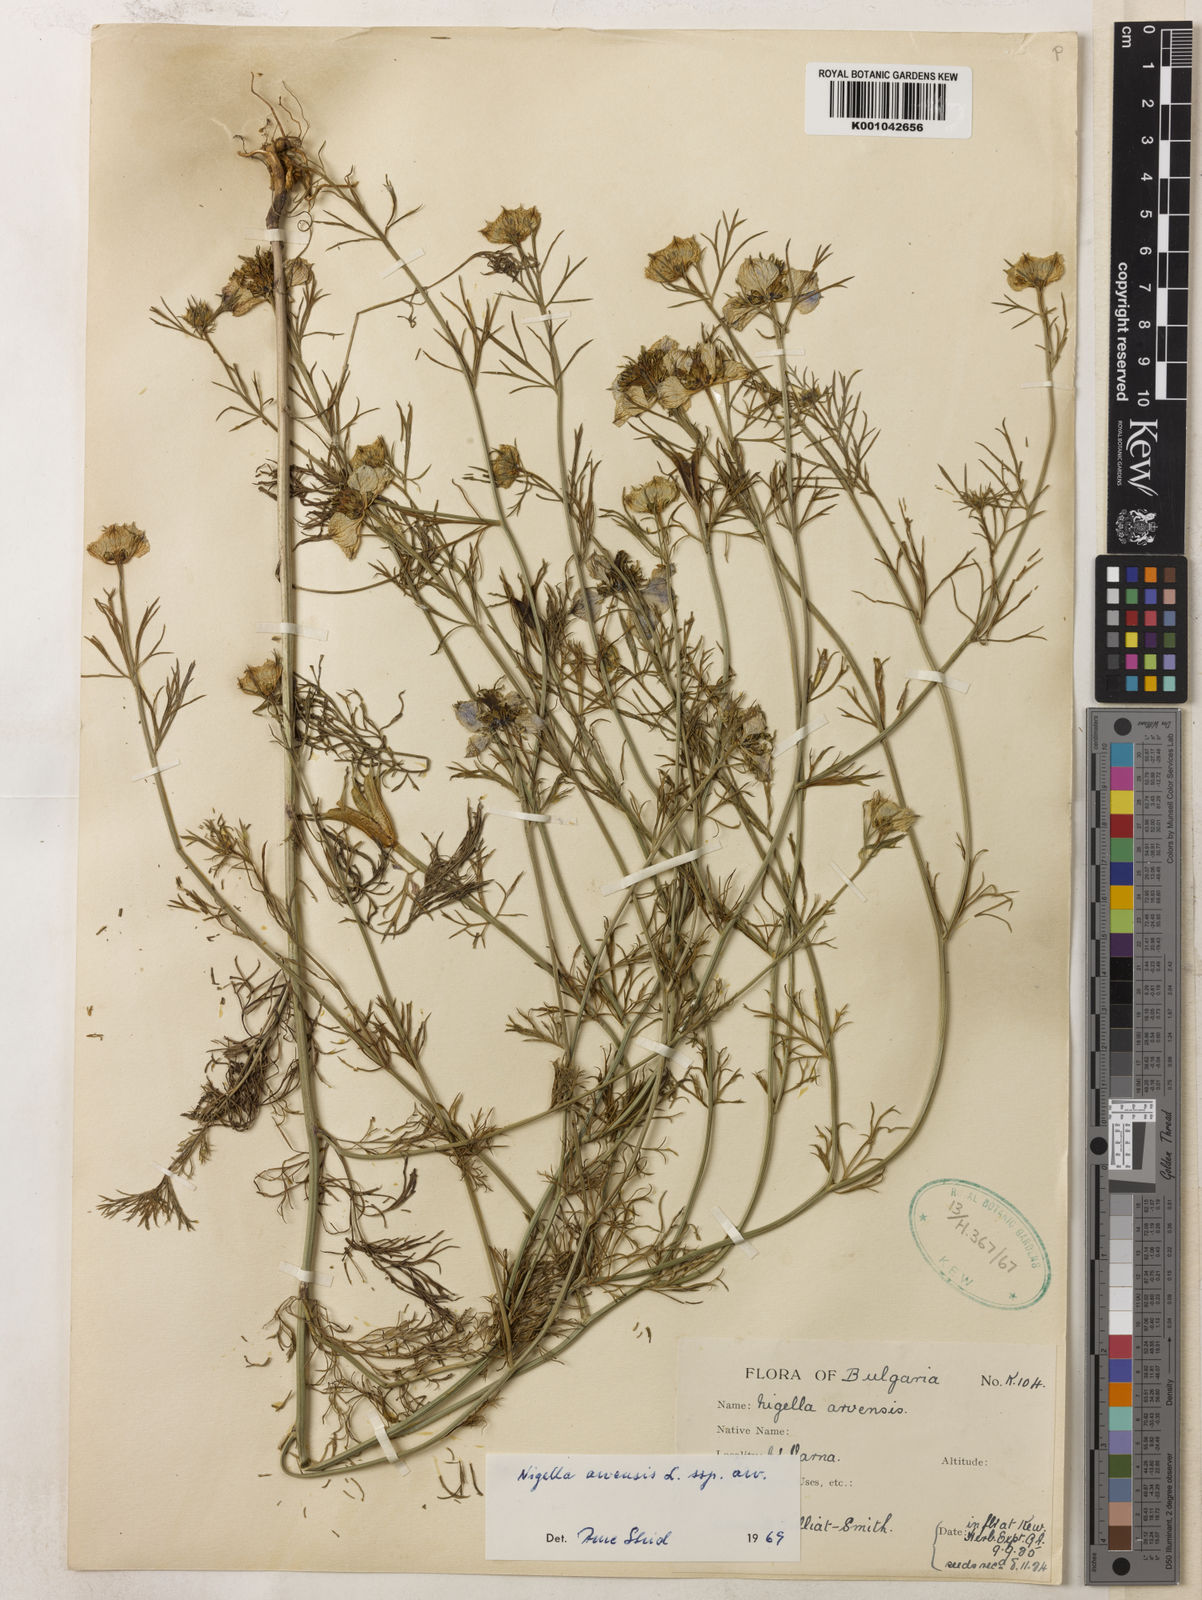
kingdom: Plantae
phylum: Tracheophyta
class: Magnoliopsida
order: Ranunculales
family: Ranunculaceae
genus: Nigella
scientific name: Nigella arvensis
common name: Wild fennel-flower
